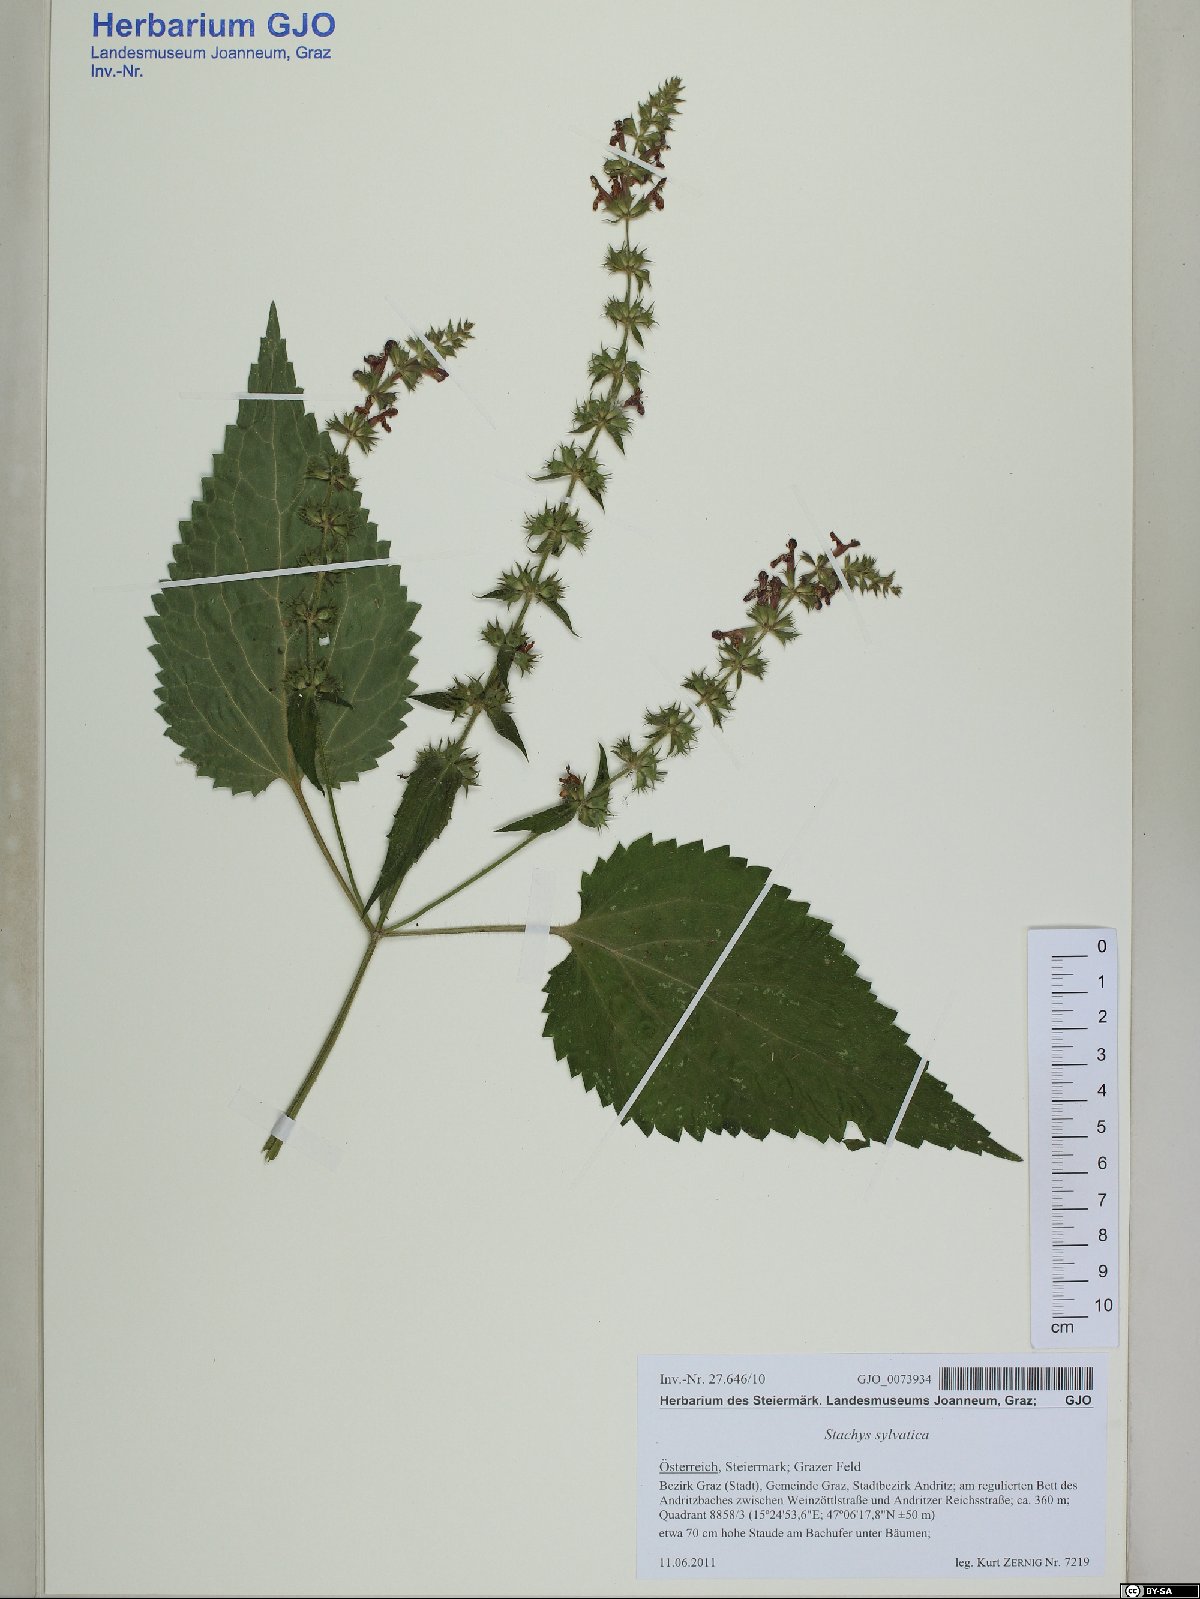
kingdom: Plantae
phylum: Tracheophyta
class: Magnoliopsida
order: Lamiales
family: Lamiaceae
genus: Stachys
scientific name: Stachys sylvatica
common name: Hedge woundwort
